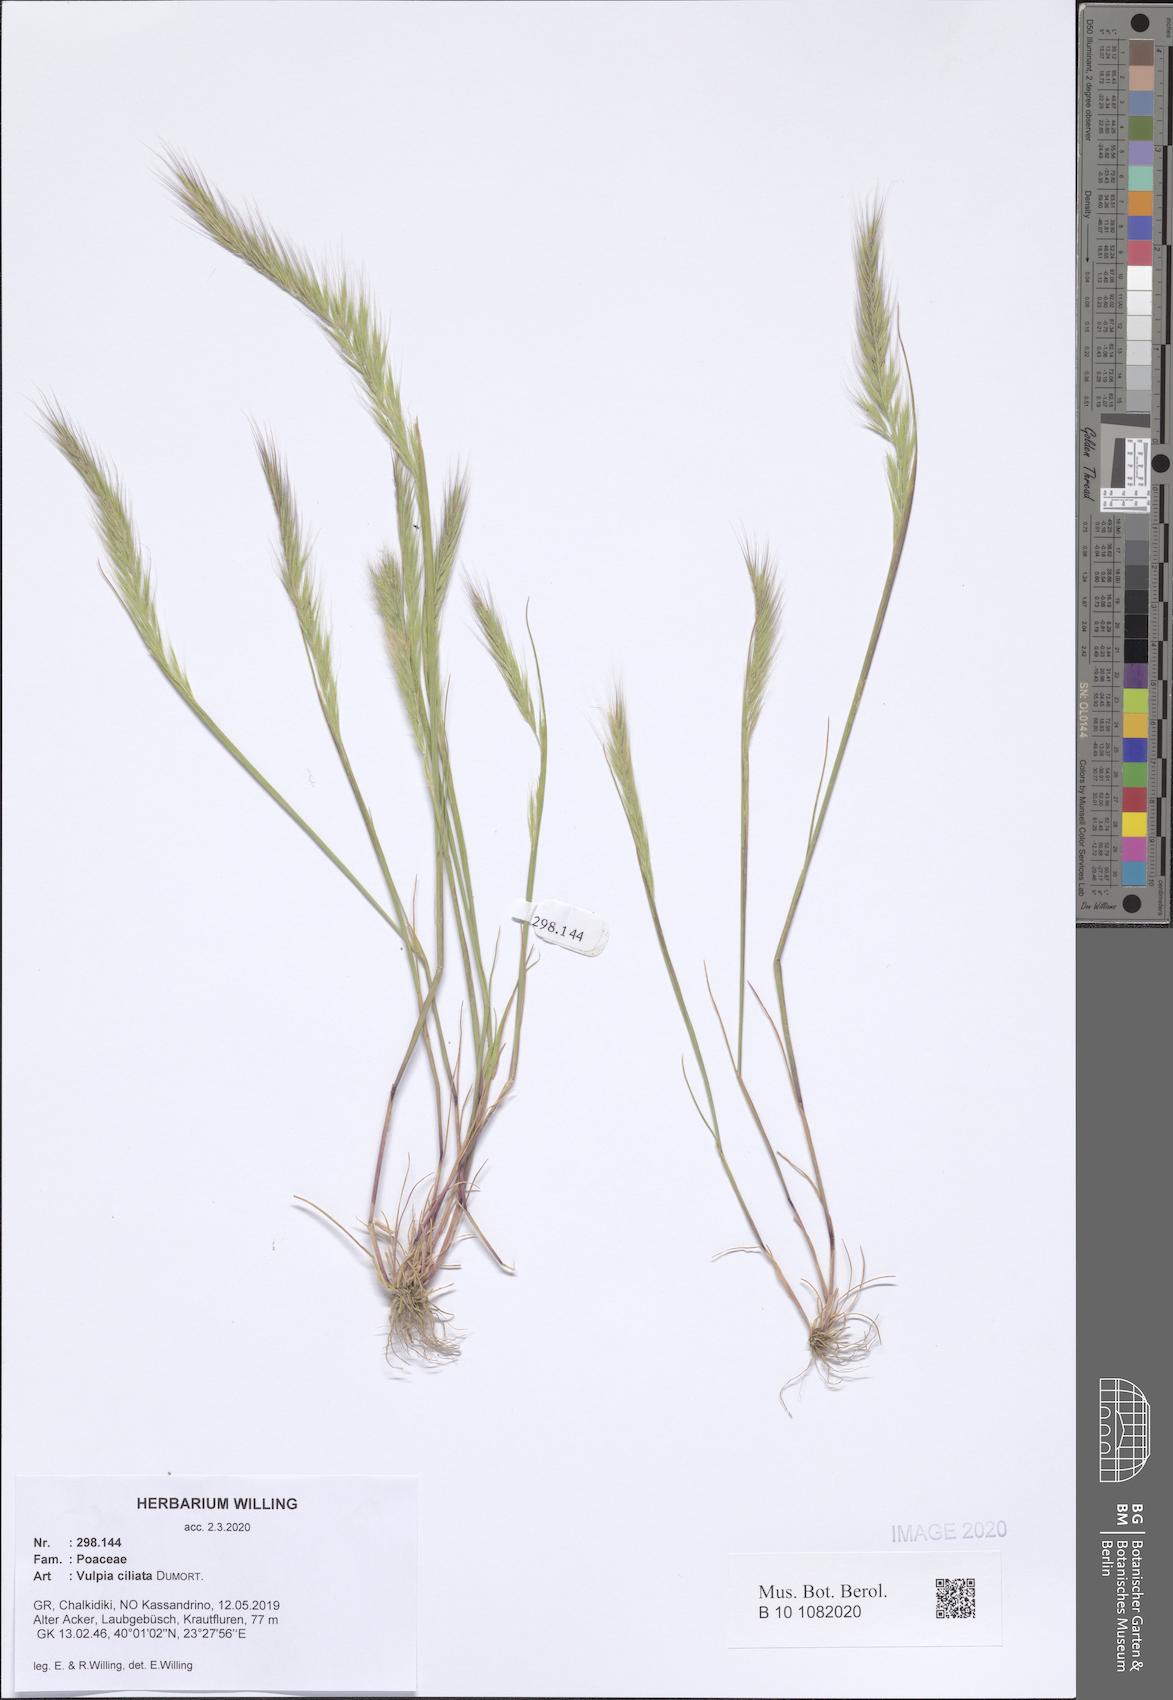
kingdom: Plantae
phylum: Tracheophyta
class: Liliopsida
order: Poales
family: Poaceae
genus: Festuca
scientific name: Festuca ambigua
